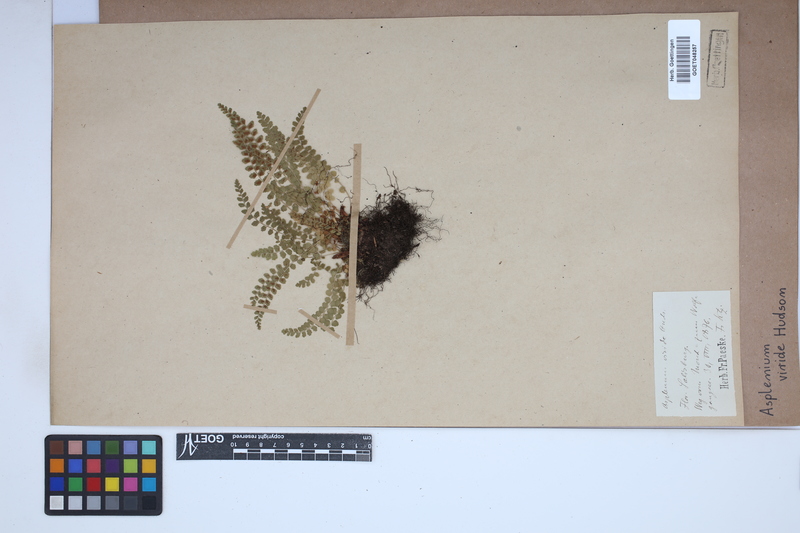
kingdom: Plantae
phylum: Tracheophyta
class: Polypodiopsida
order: Polypodiales
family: Aspleniaceae
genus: Asplenium
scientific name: Asplenium viride
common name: Green spleenwort
